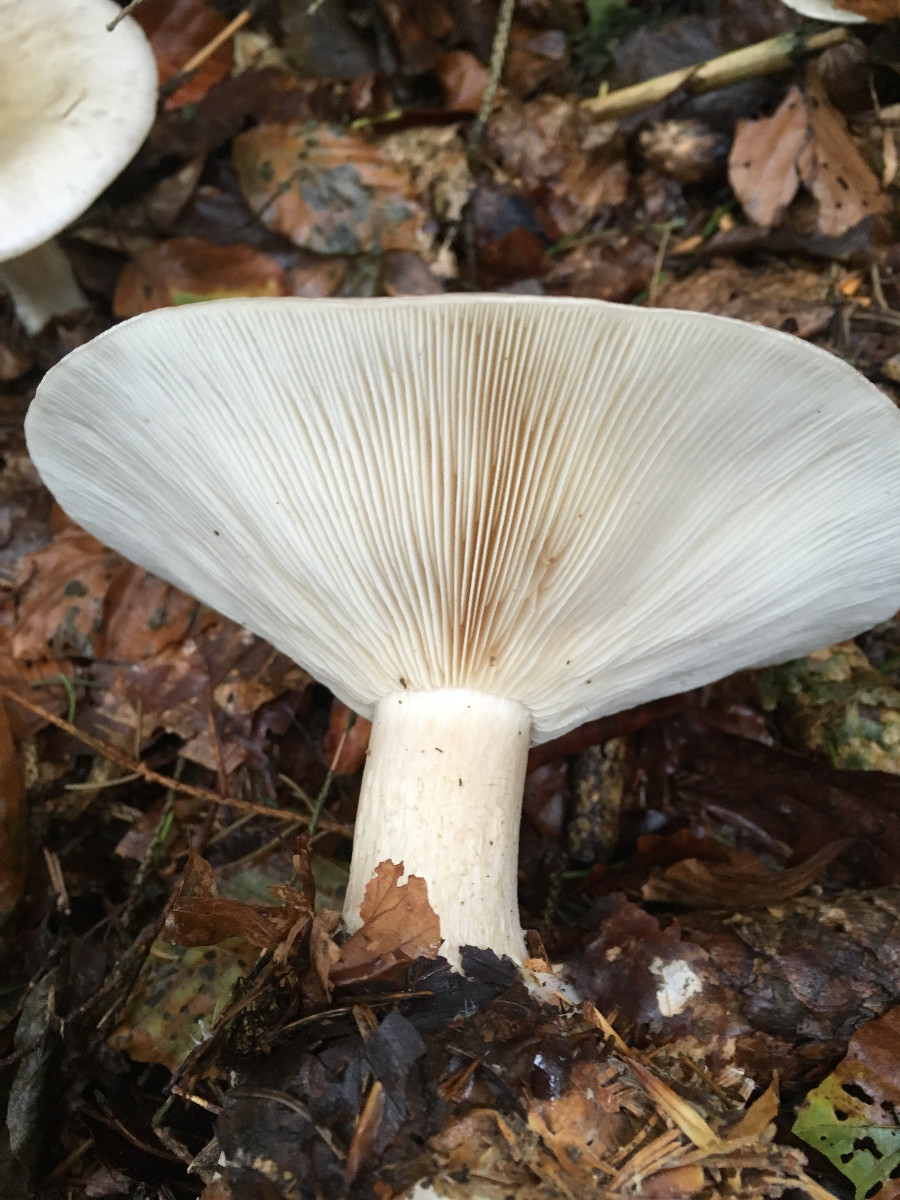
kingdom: Fungi
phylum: Basidiomycota
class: Agaricomycetes
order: Agaricales
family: Tricholomataceae
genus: Clitocybe
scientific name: Clitocybe nebularis
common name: tåge-tragthat
